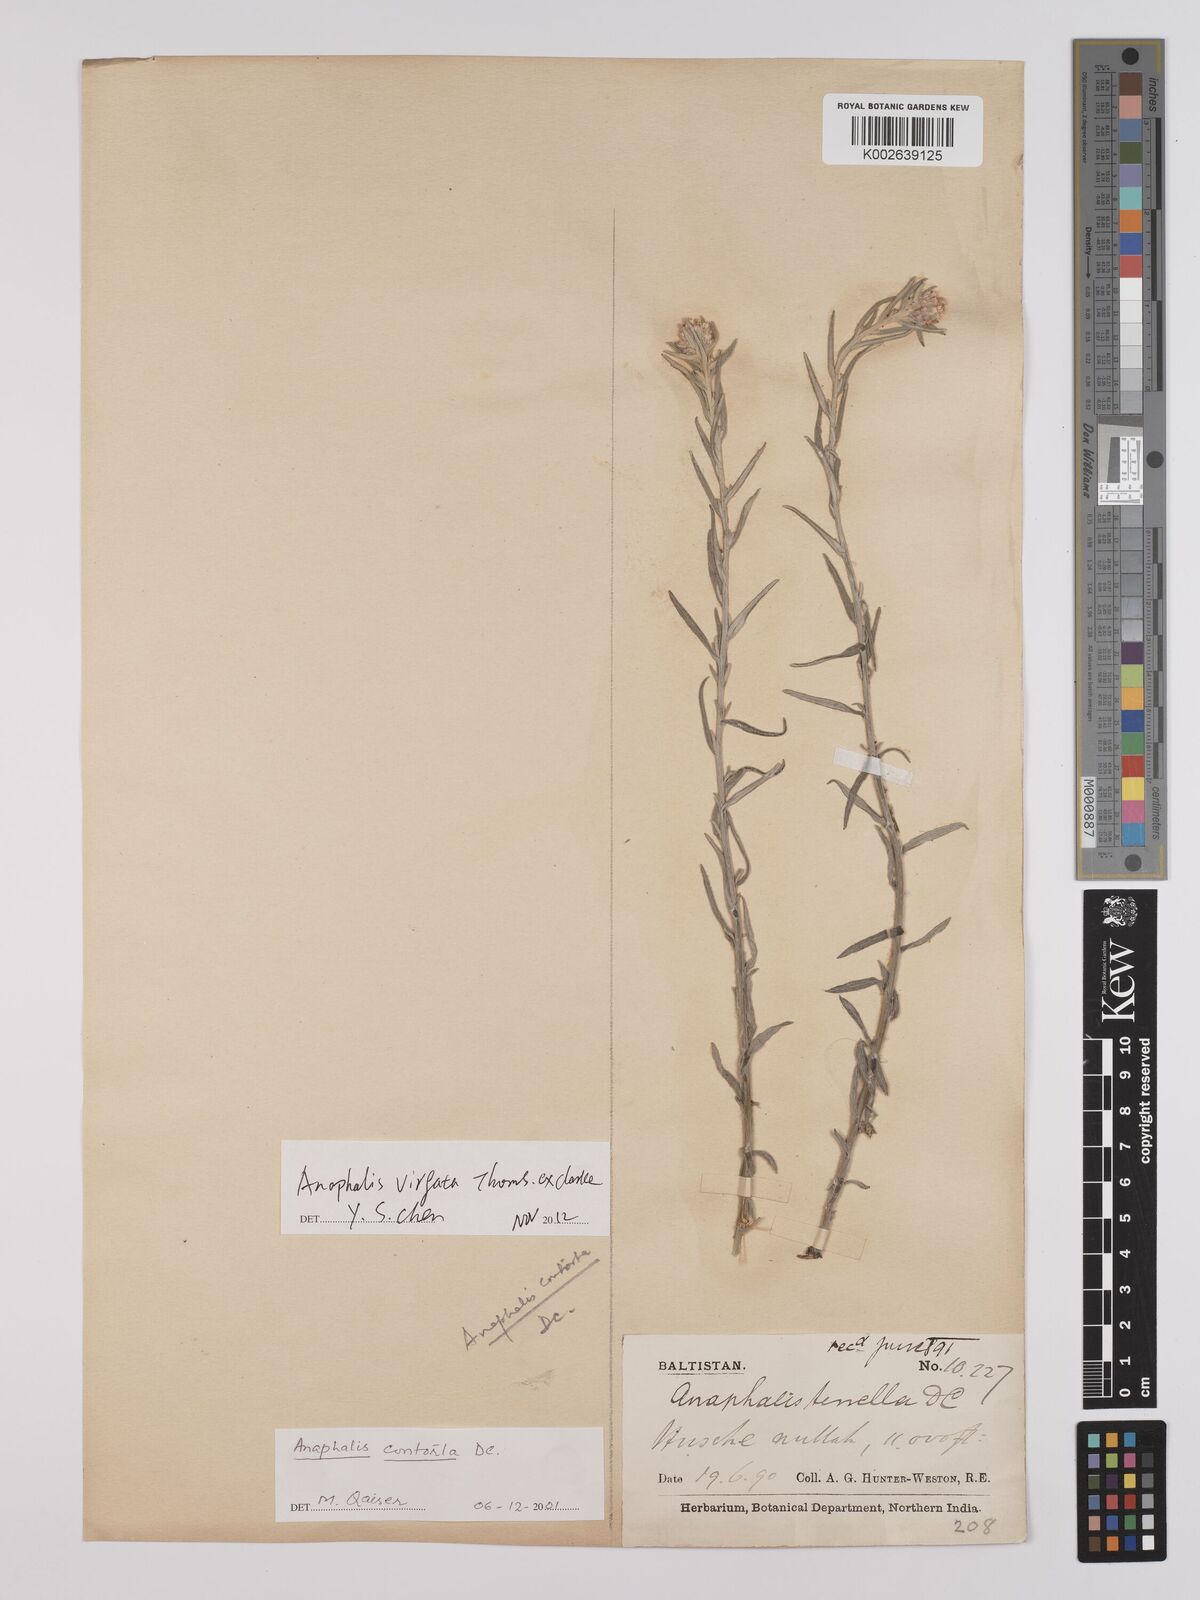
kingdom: Plantae
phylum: Tracheophyta
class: Magnoliopsida
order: Asterales
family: Asteraceae
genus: Anaphalis
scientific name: Anaphalis contorta
